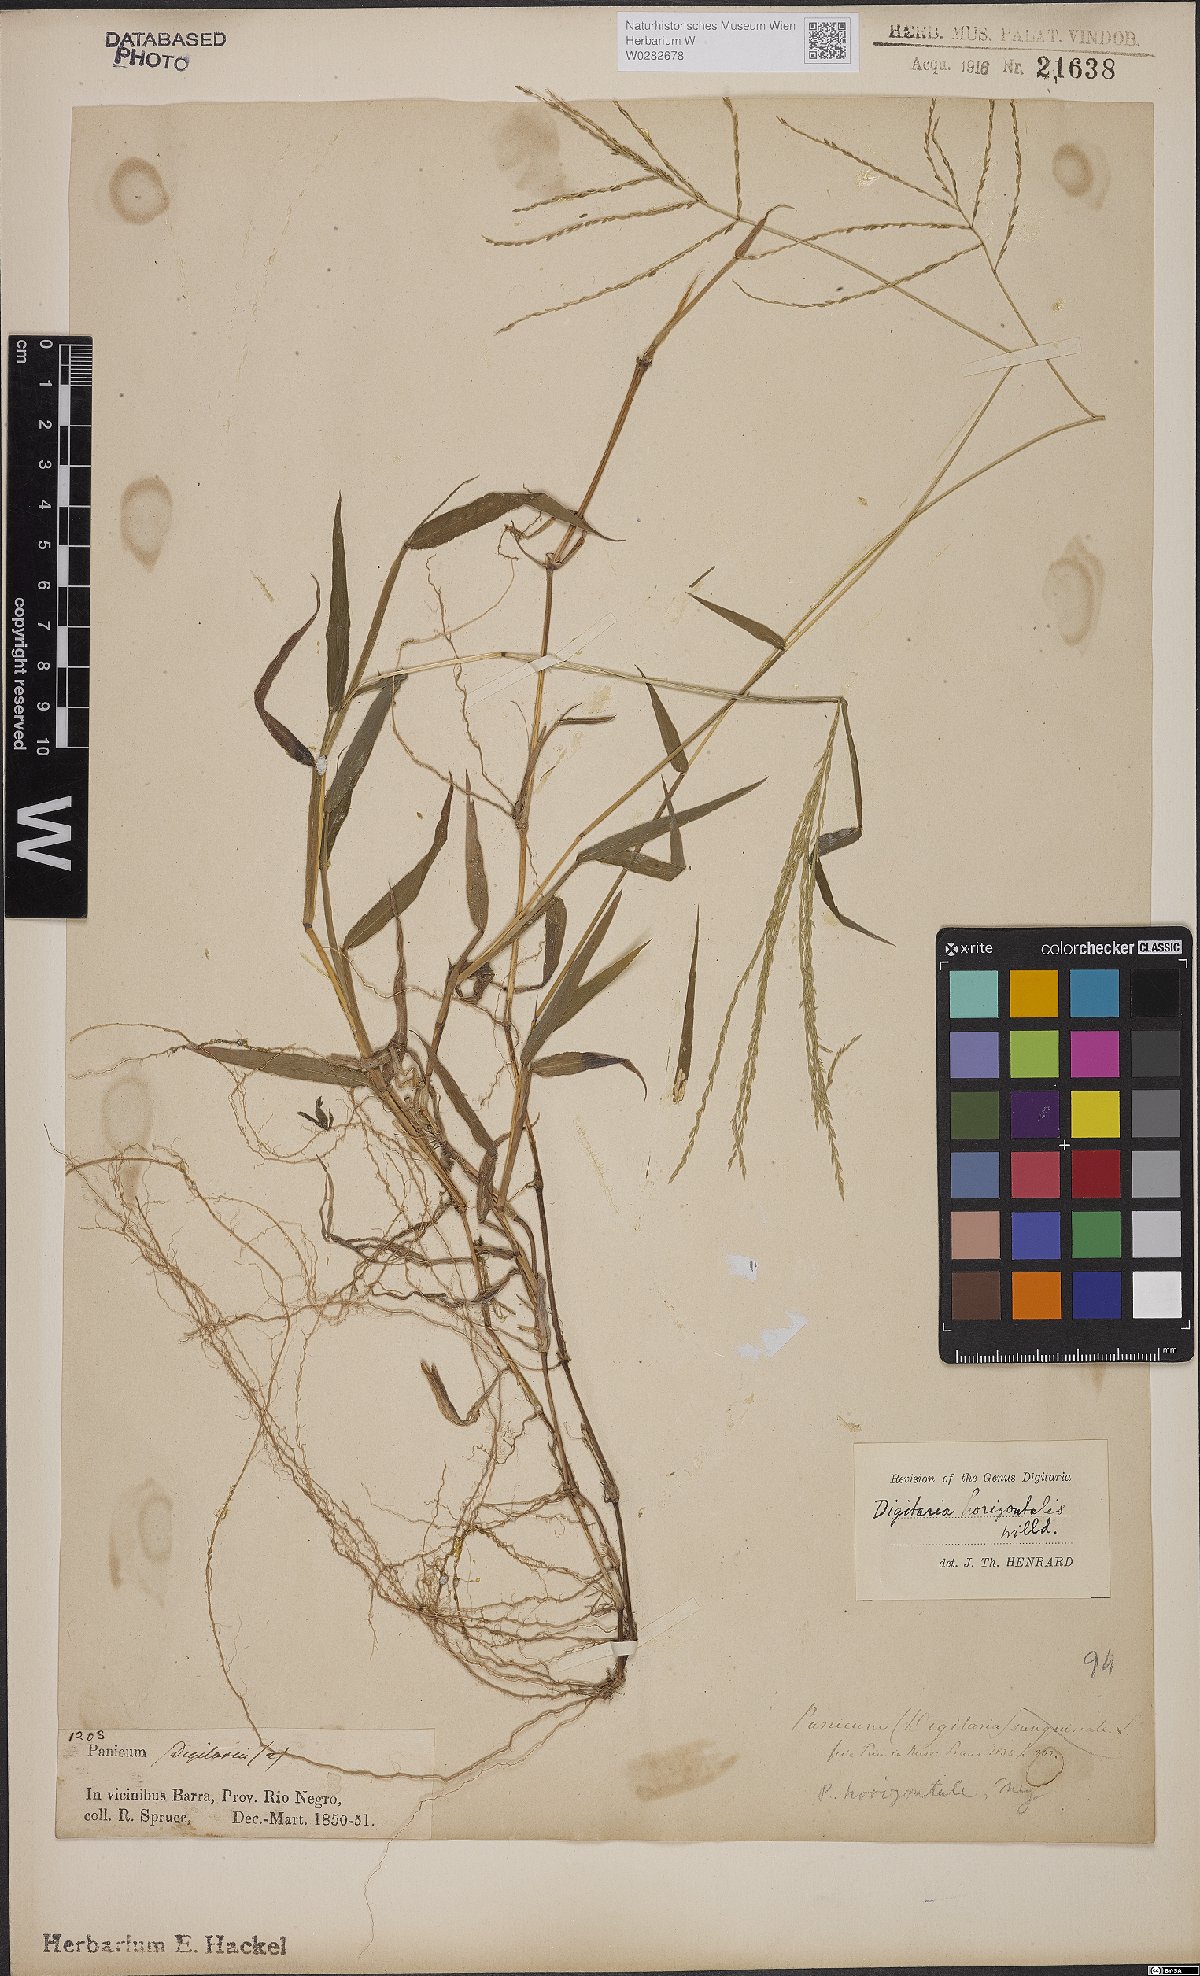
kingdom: Plantae
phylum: Tracheophyta
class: Liliopsida
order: Poales
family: Poaceae
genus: Digitaria
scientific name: Digitaria horizontalis
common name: Jamaican crabgrass
